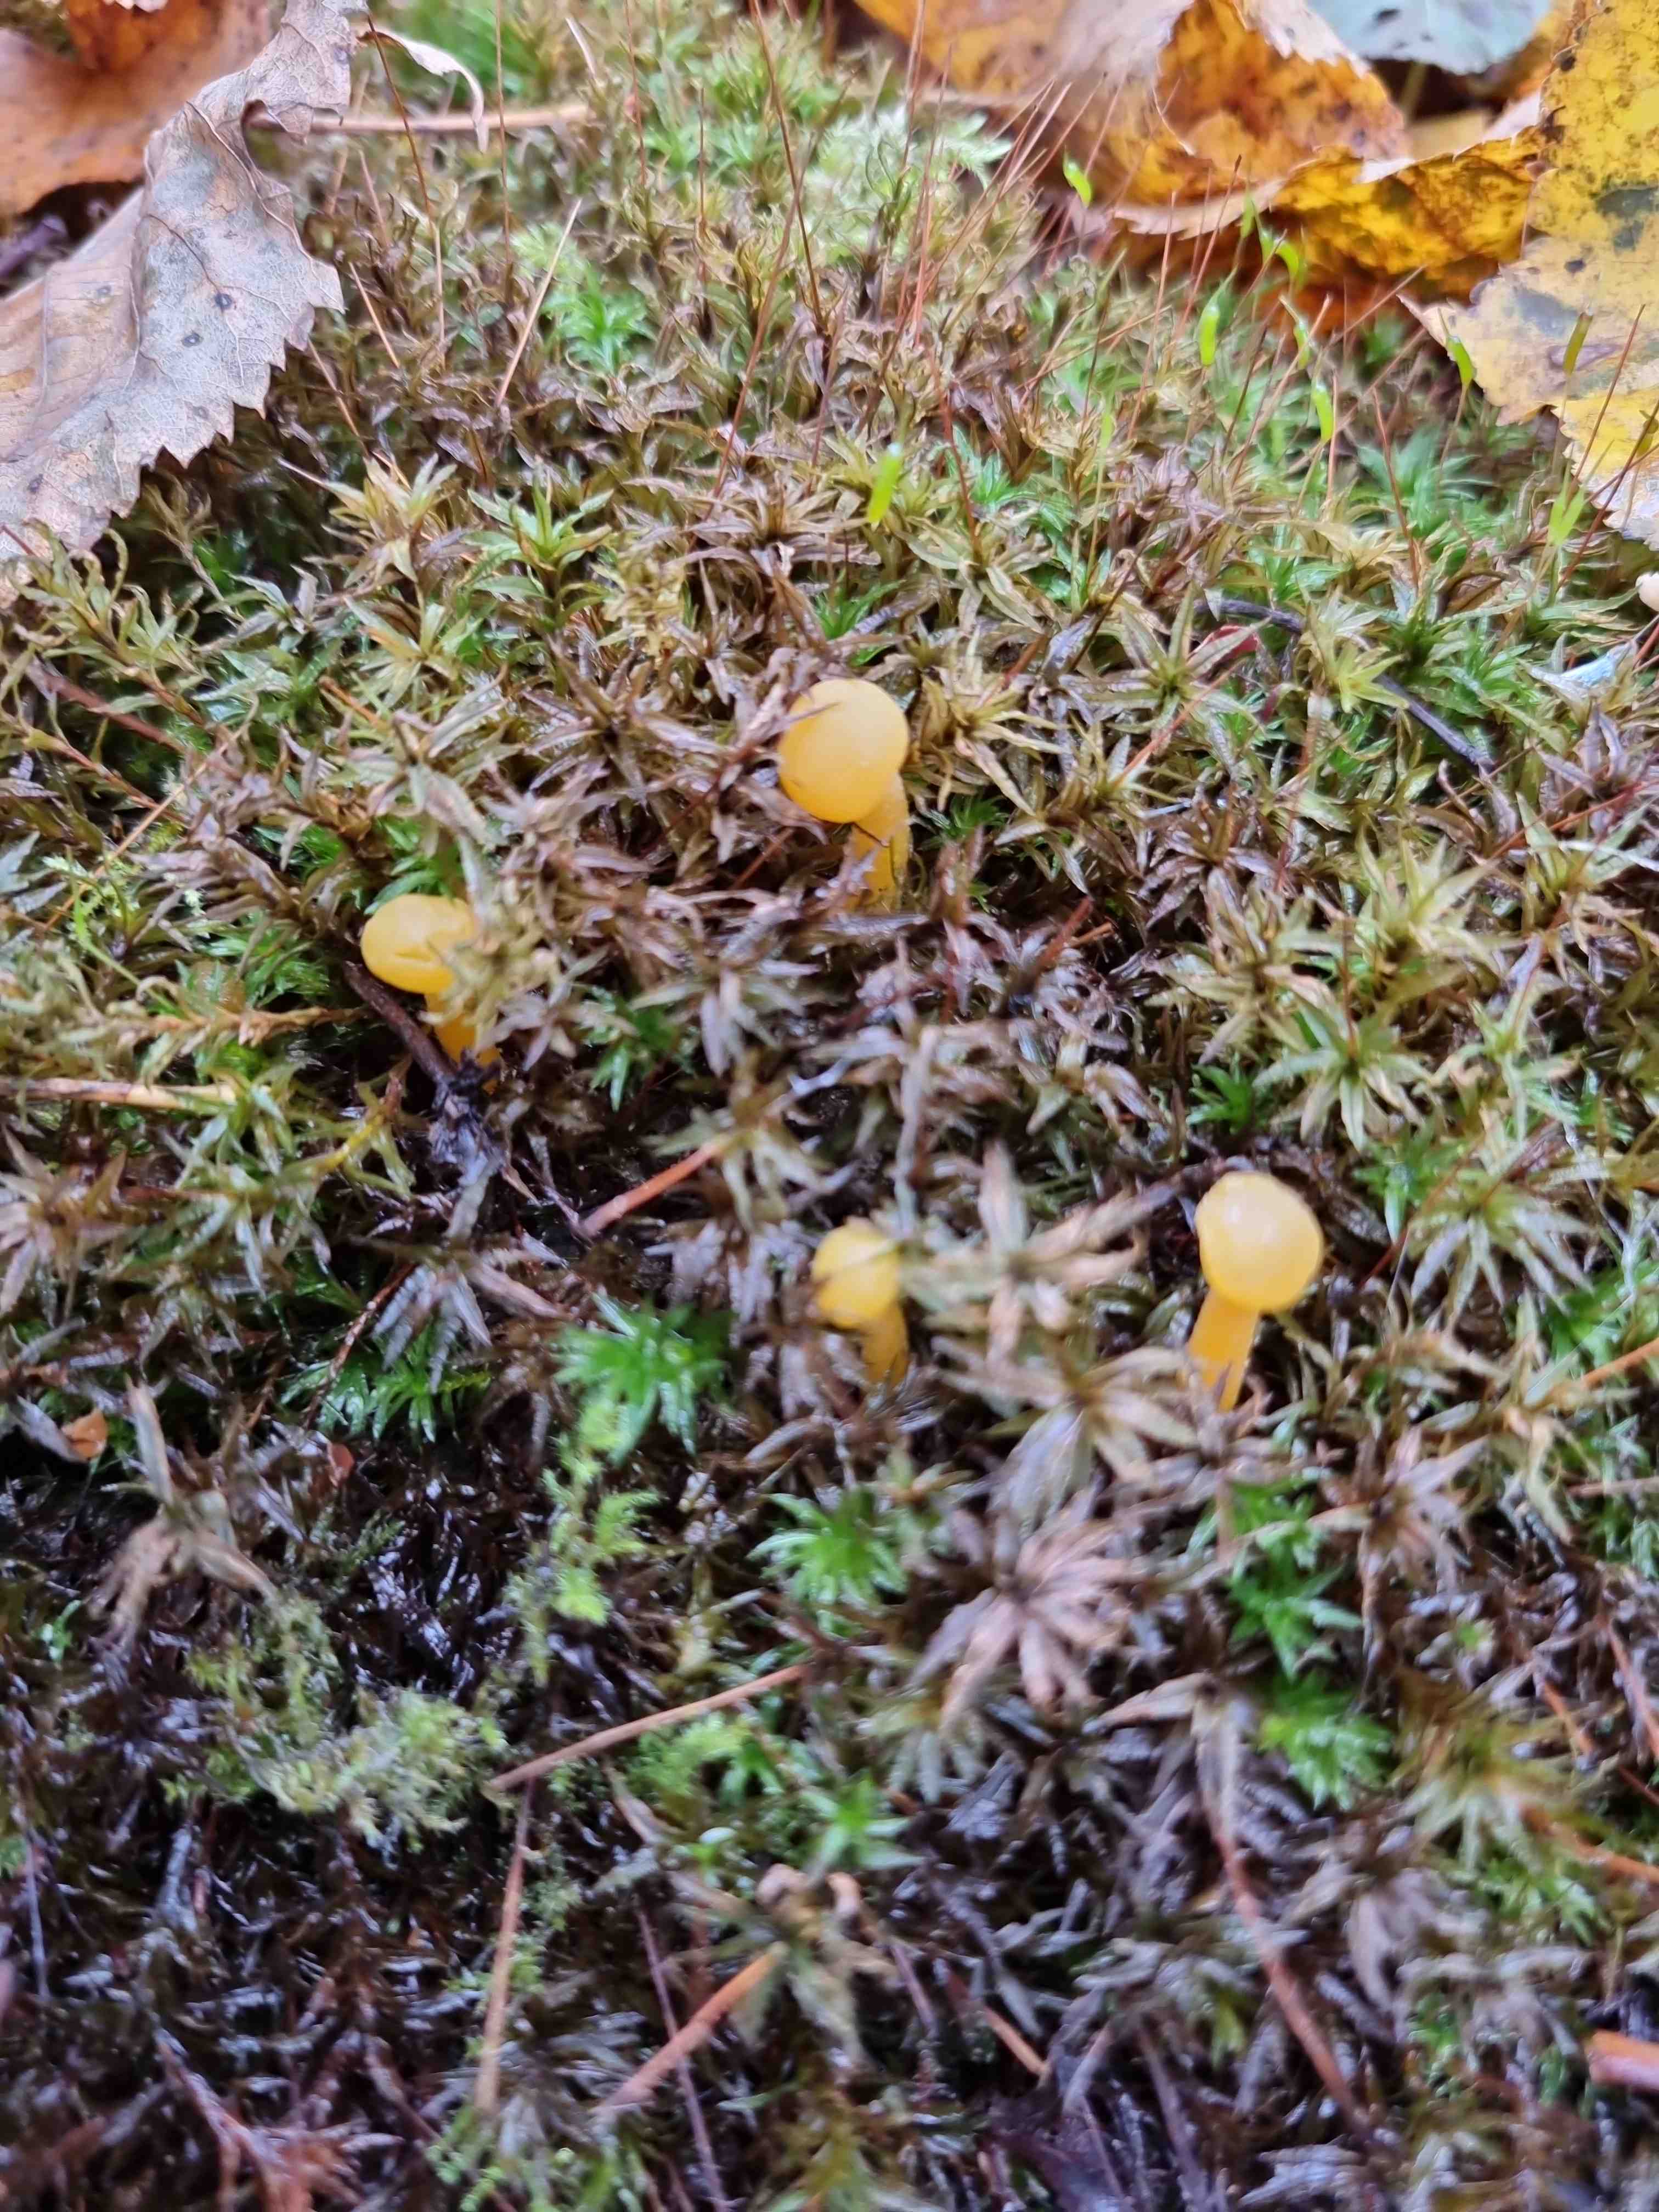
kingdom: Fungi
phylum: Ascomycota
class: Leotiomycetes
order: Leotiales
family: Leotiaceae
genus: Leotia
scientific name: Leotia lubrica
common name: ravsvamp
